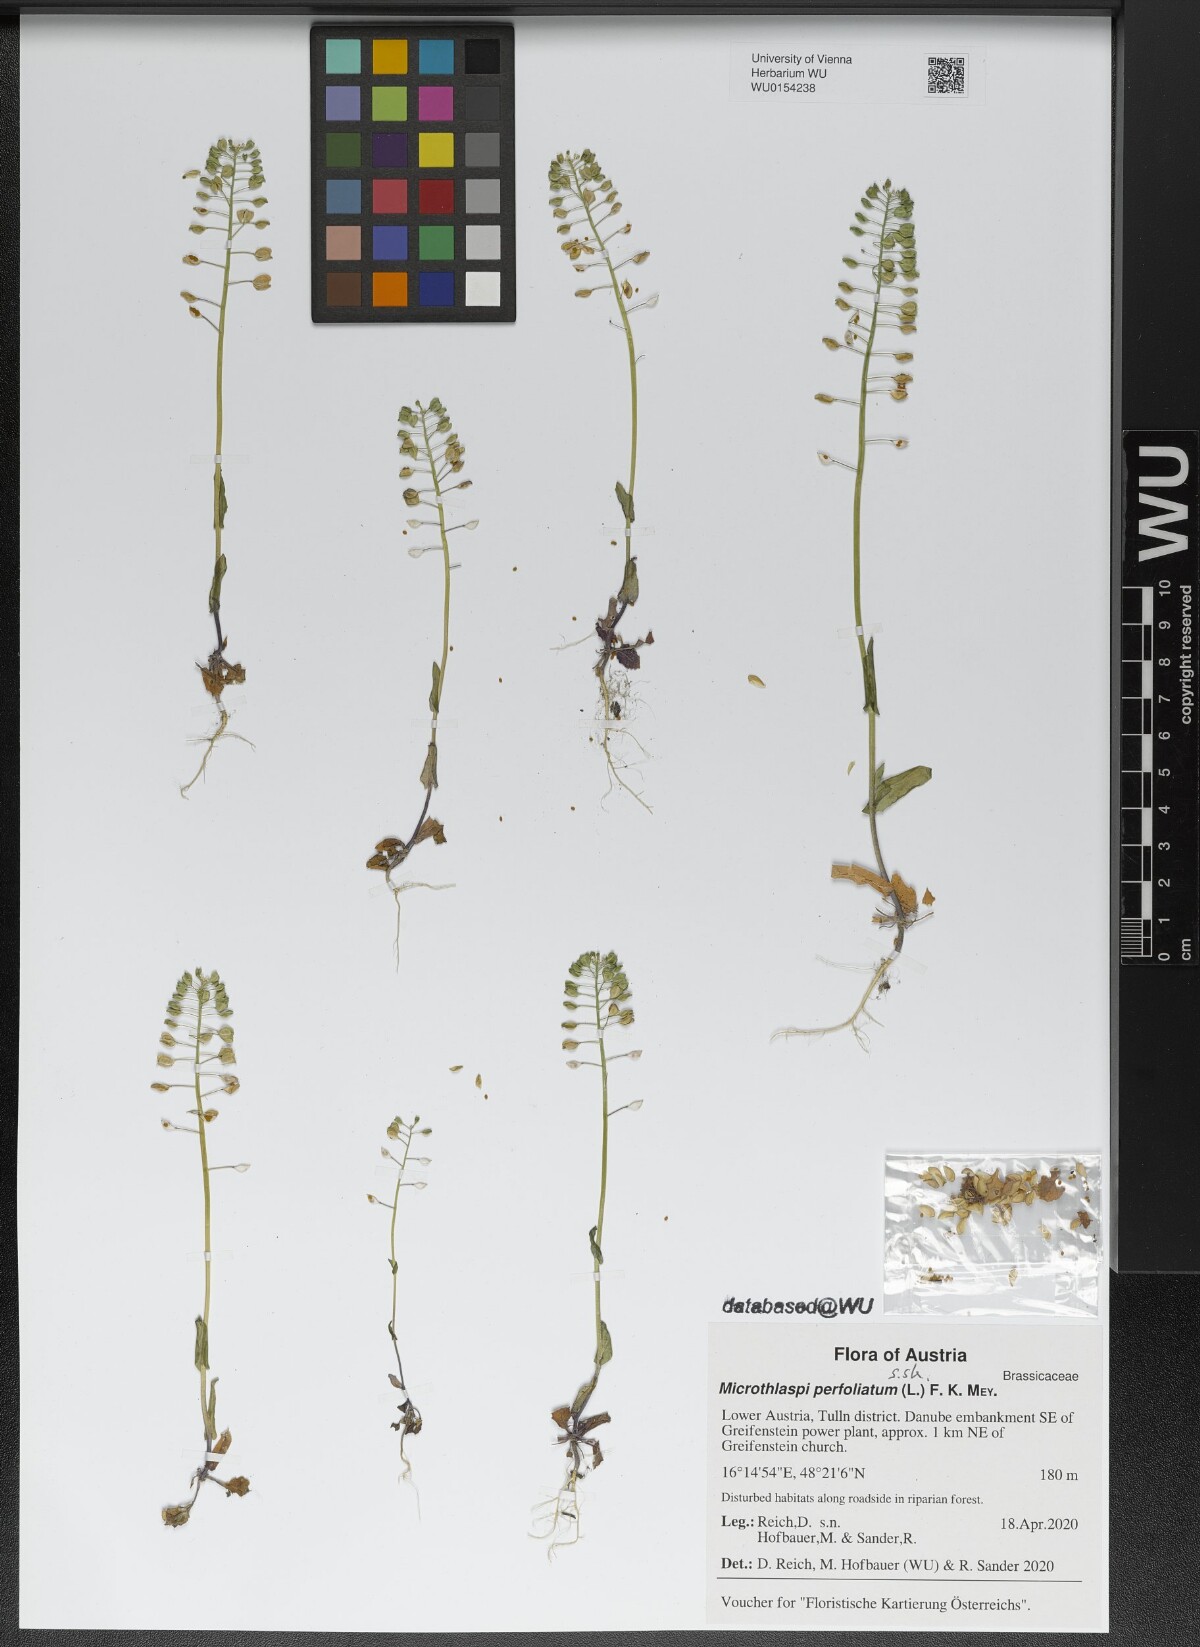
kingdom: Plantae
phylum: Tracheophyta
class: Magnoliopsida
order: Brassicales
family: Brassicaceae
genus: Noccaea
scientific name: Noccaea perfoliata
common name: Perfoliate pennycress
